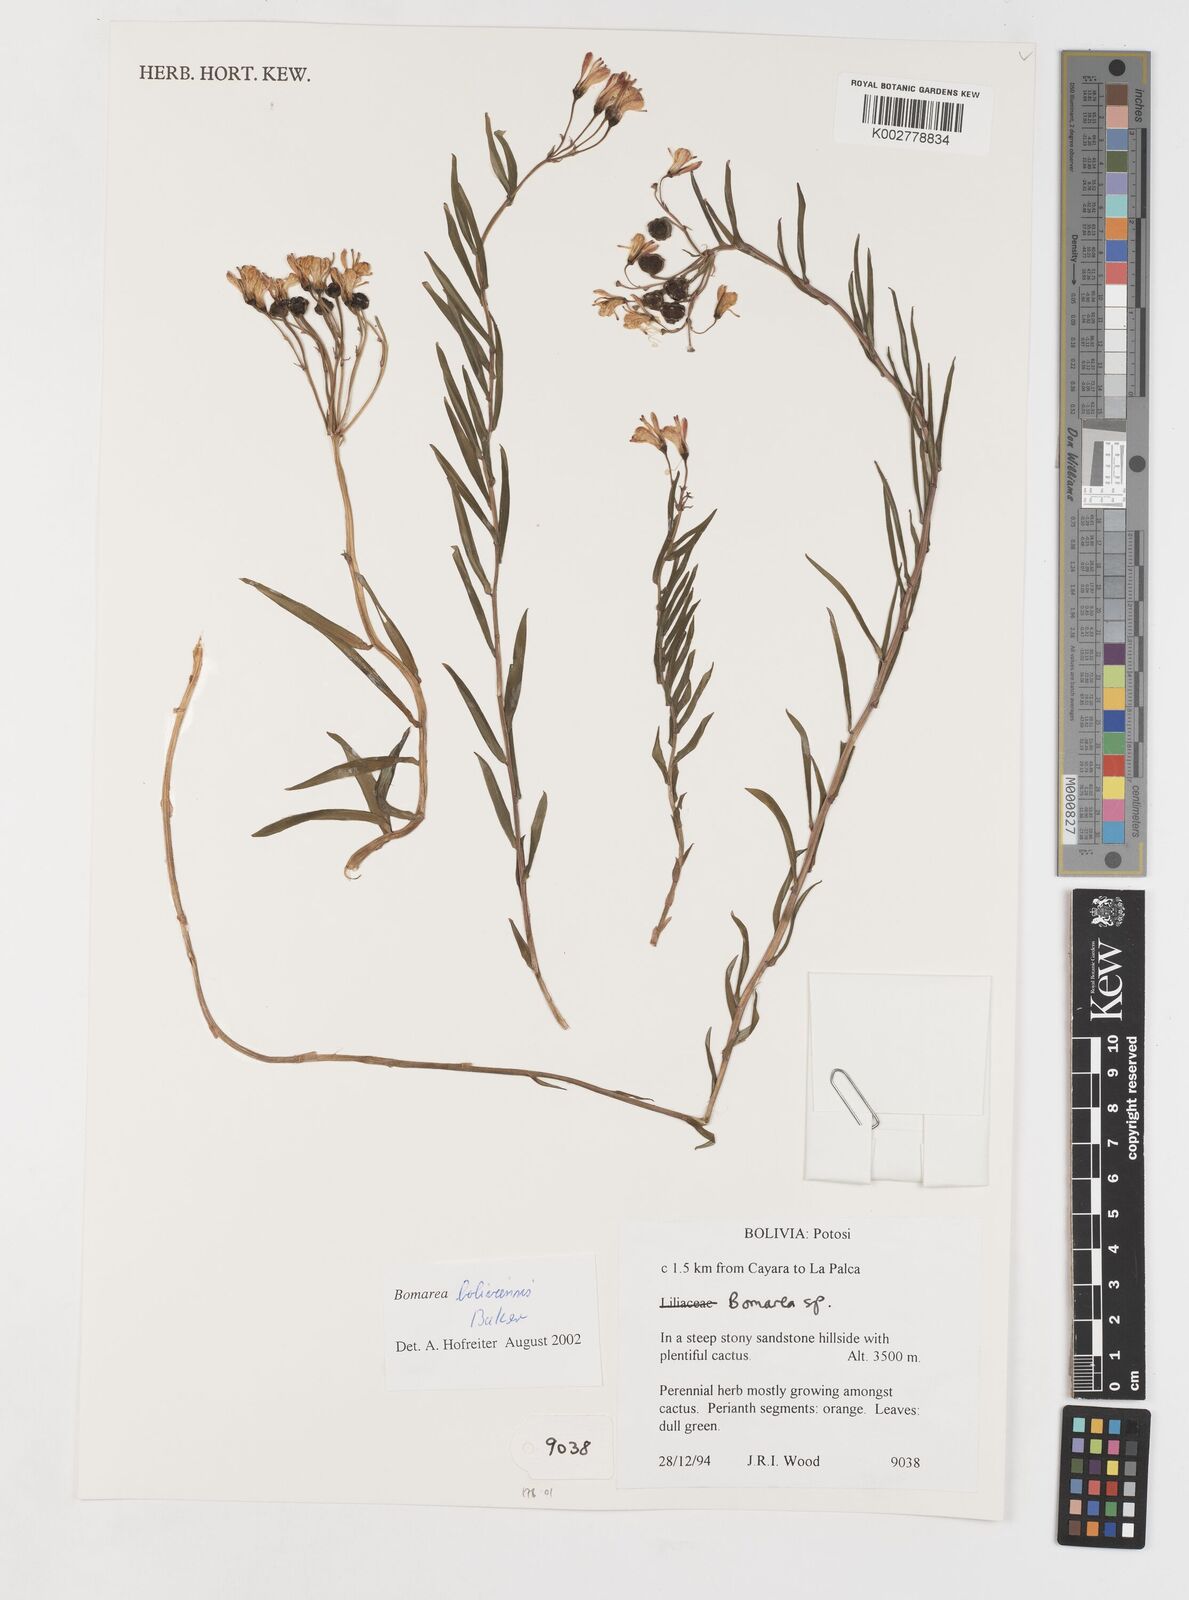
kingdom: Plantae
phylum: Tracheophyta
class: Liliopsida
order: Liliales
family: Alstroemeriaceae
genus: Bomarea
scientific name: Bomarea boliviensis
